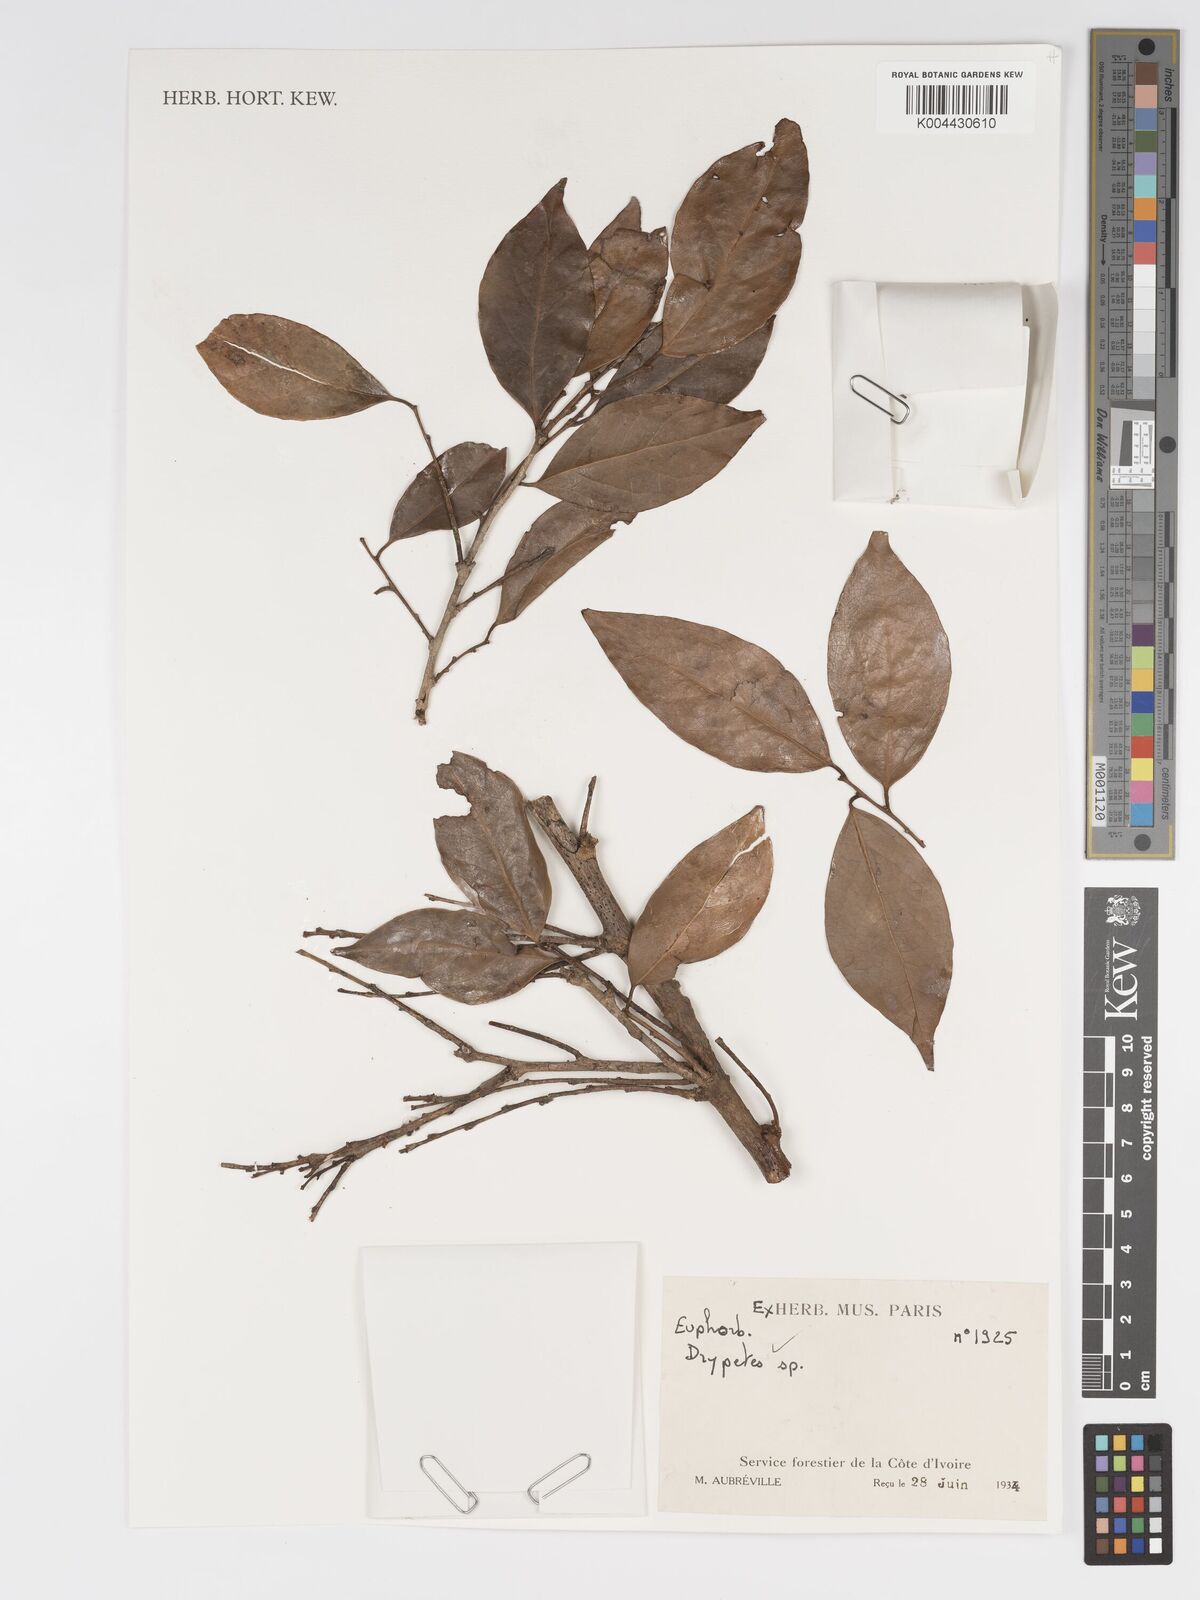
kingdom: Plantae
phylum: Tracheophyta
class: Magnoliopsida
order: Malpighiales
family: Putranjivaceae
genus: Drypetes
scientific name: Drypetes
